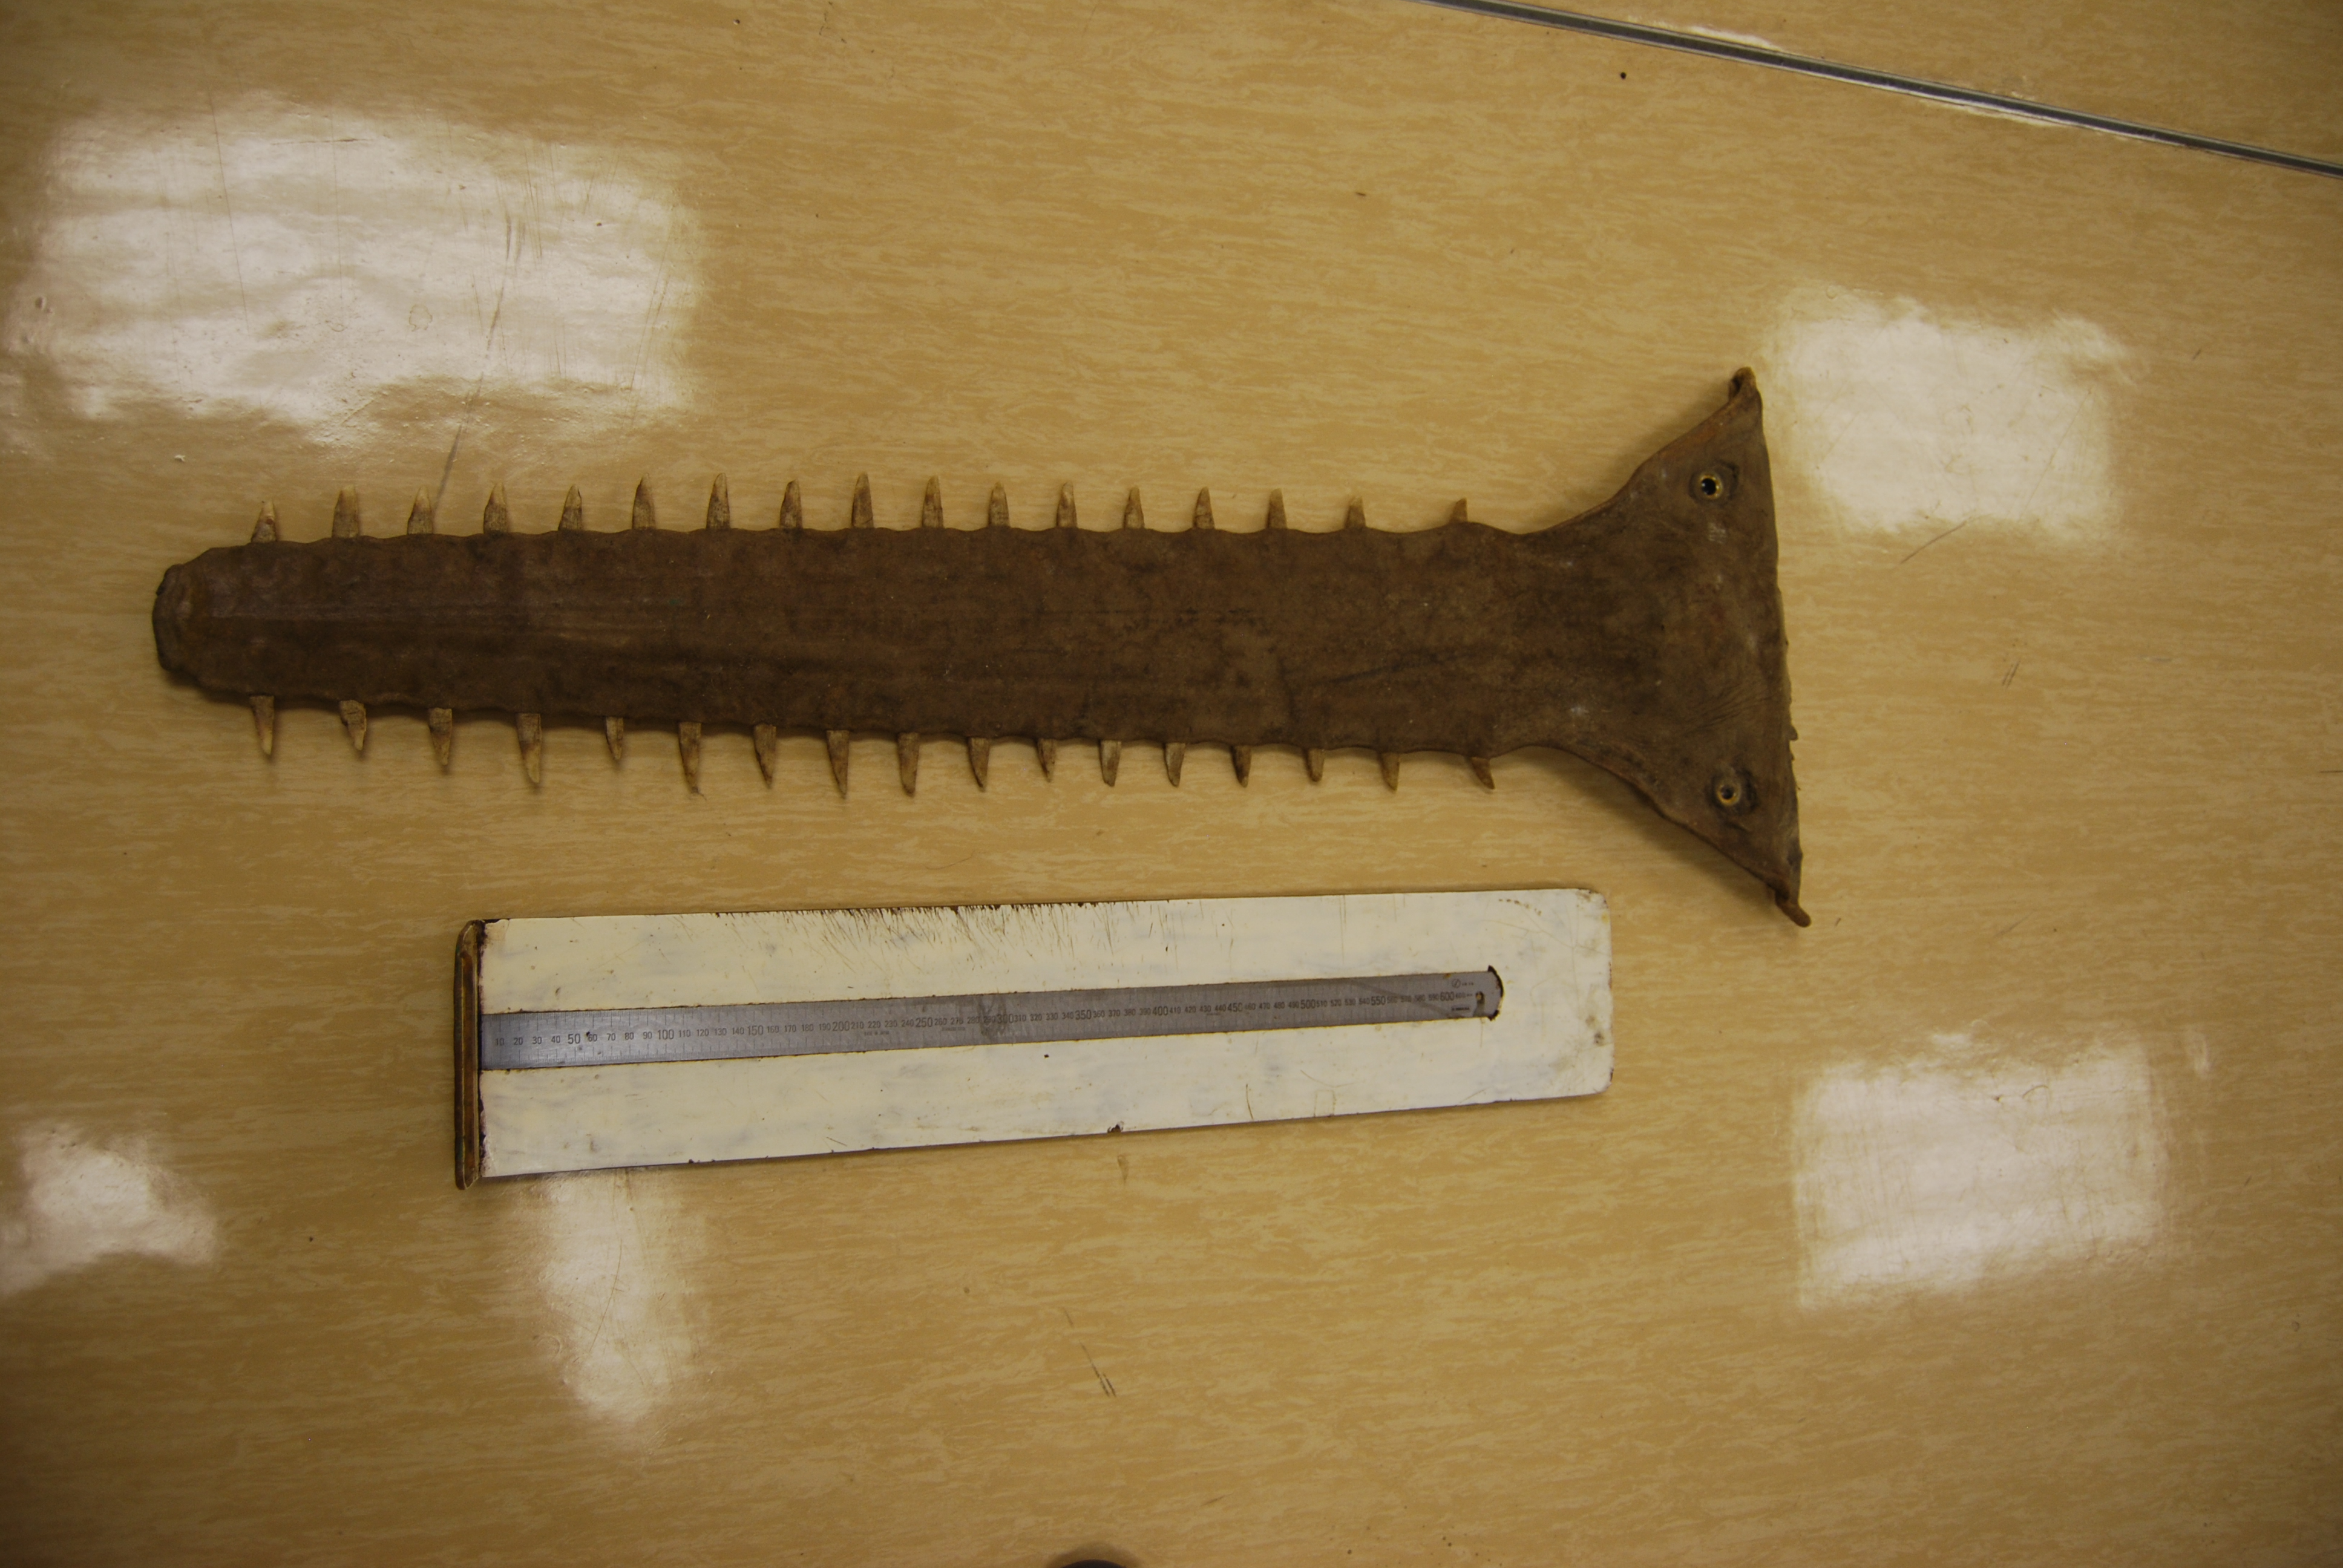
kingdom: Animalia
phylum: Chordata
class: Elasmobranchii
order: Rhinopristiformes
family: Pristidae
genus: Pristis
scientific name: Pristis microdon
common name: Largetooth sawfish
